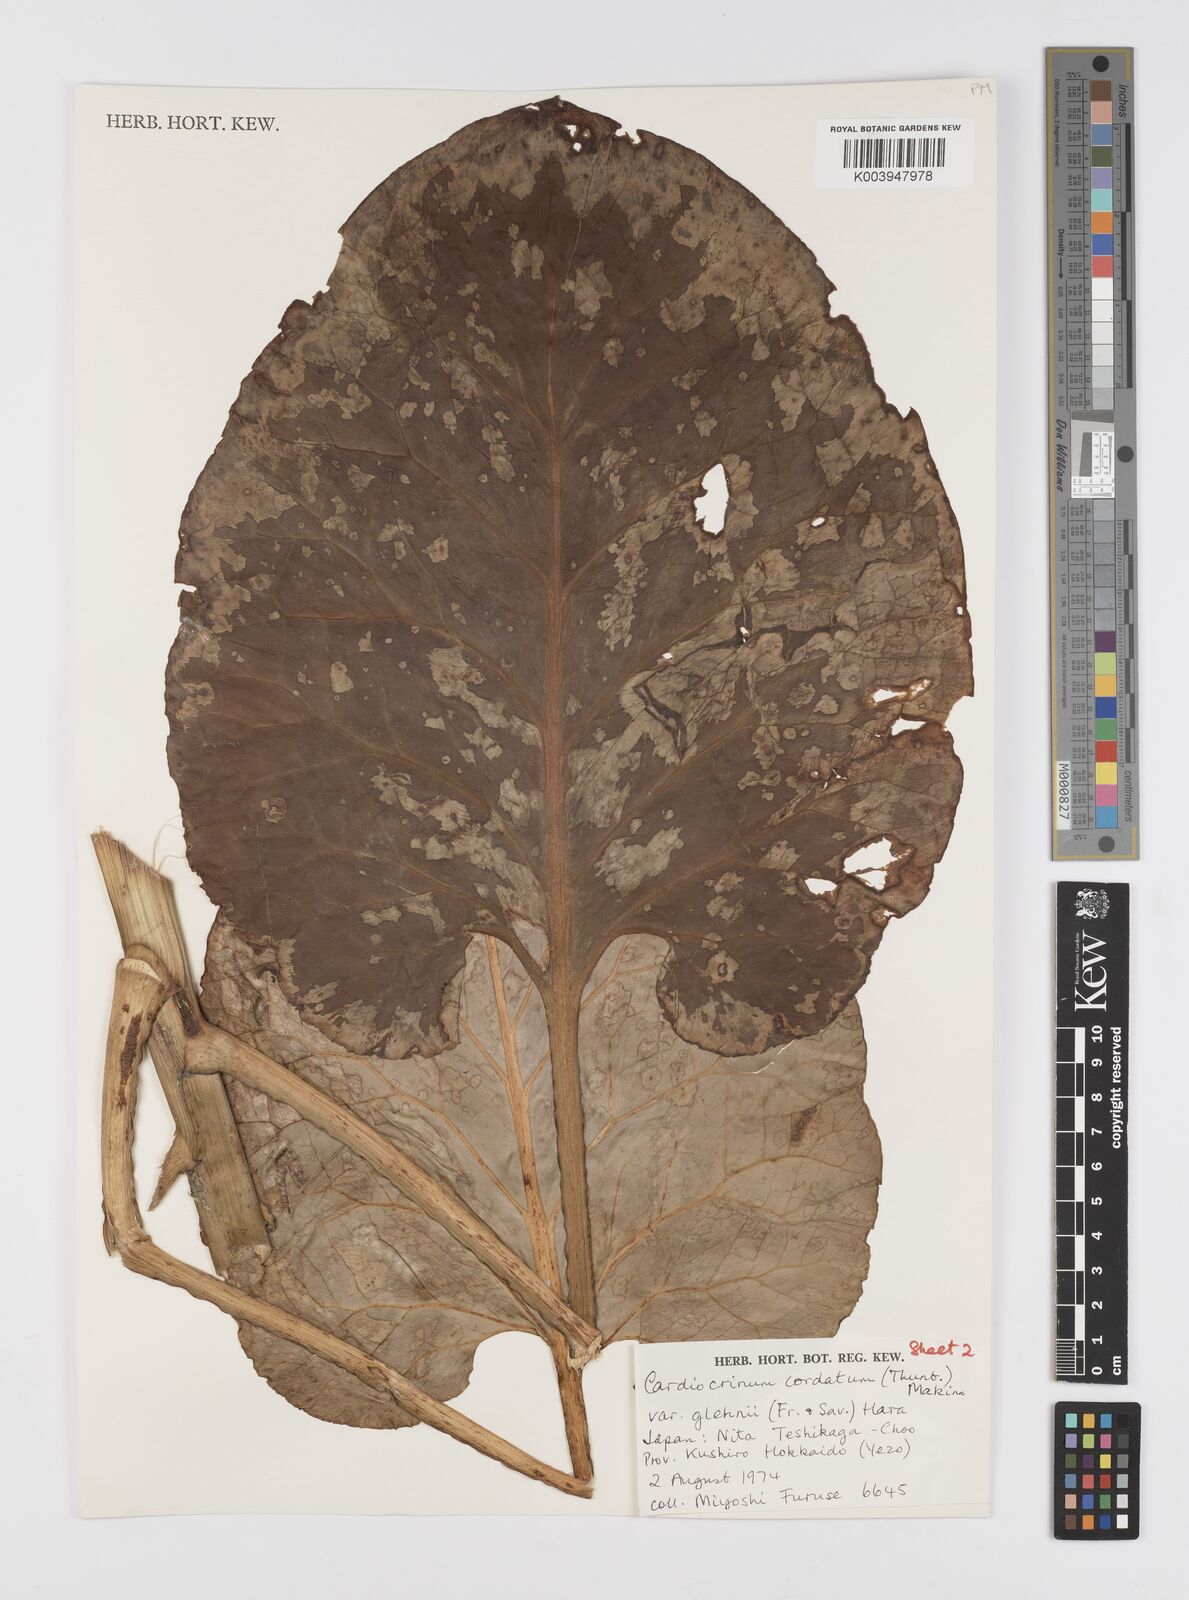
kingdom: Plantae
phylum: Tracheophyta
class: Liliopsida
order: Liliales
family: Liliaceae
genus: Cardiocrinum
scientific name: Cardiocrinum cordatum
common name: Lily
